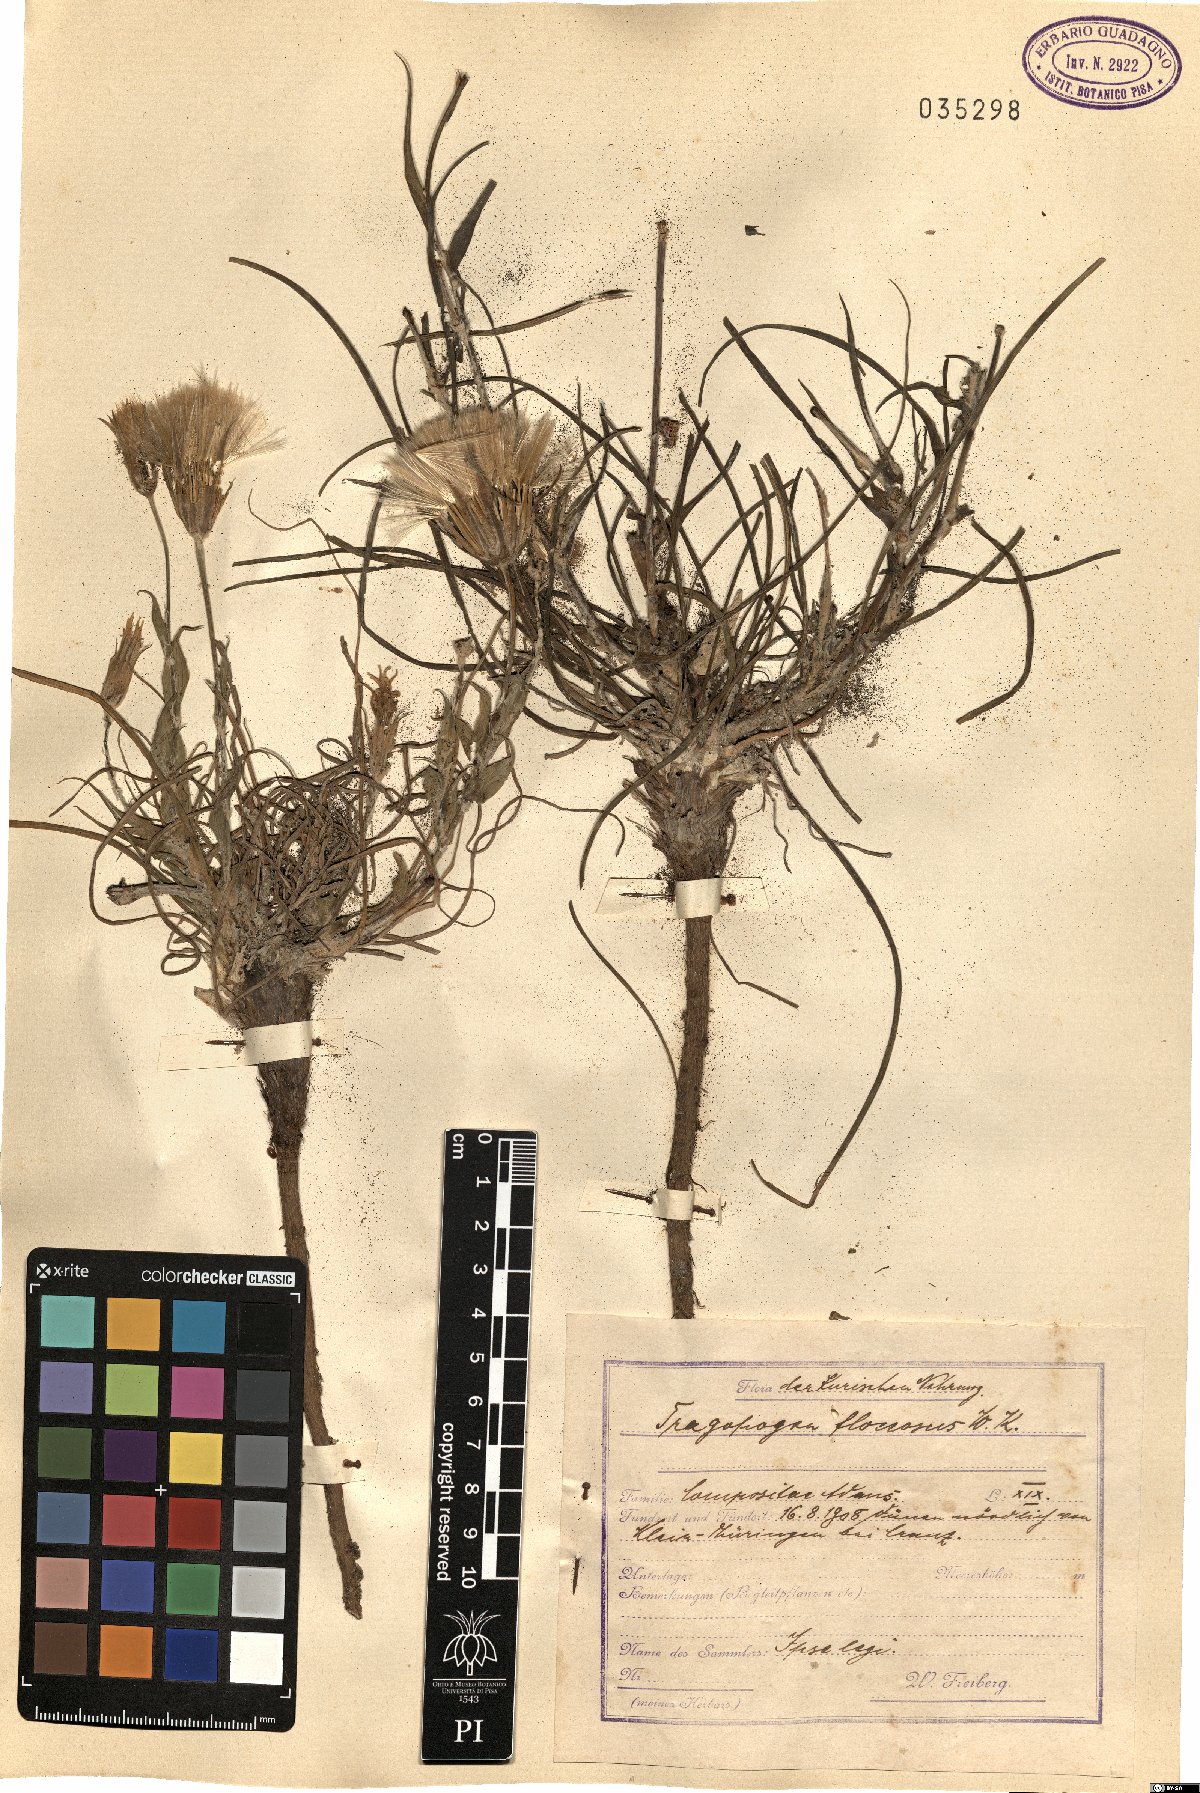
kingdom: Plantae
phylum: Tracheophyta
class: Magnoliopsida
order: Asterales
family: Asteraceae
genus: Tragopogon
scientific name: Tragopogon floccosus
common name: Woolly goatsbeard
